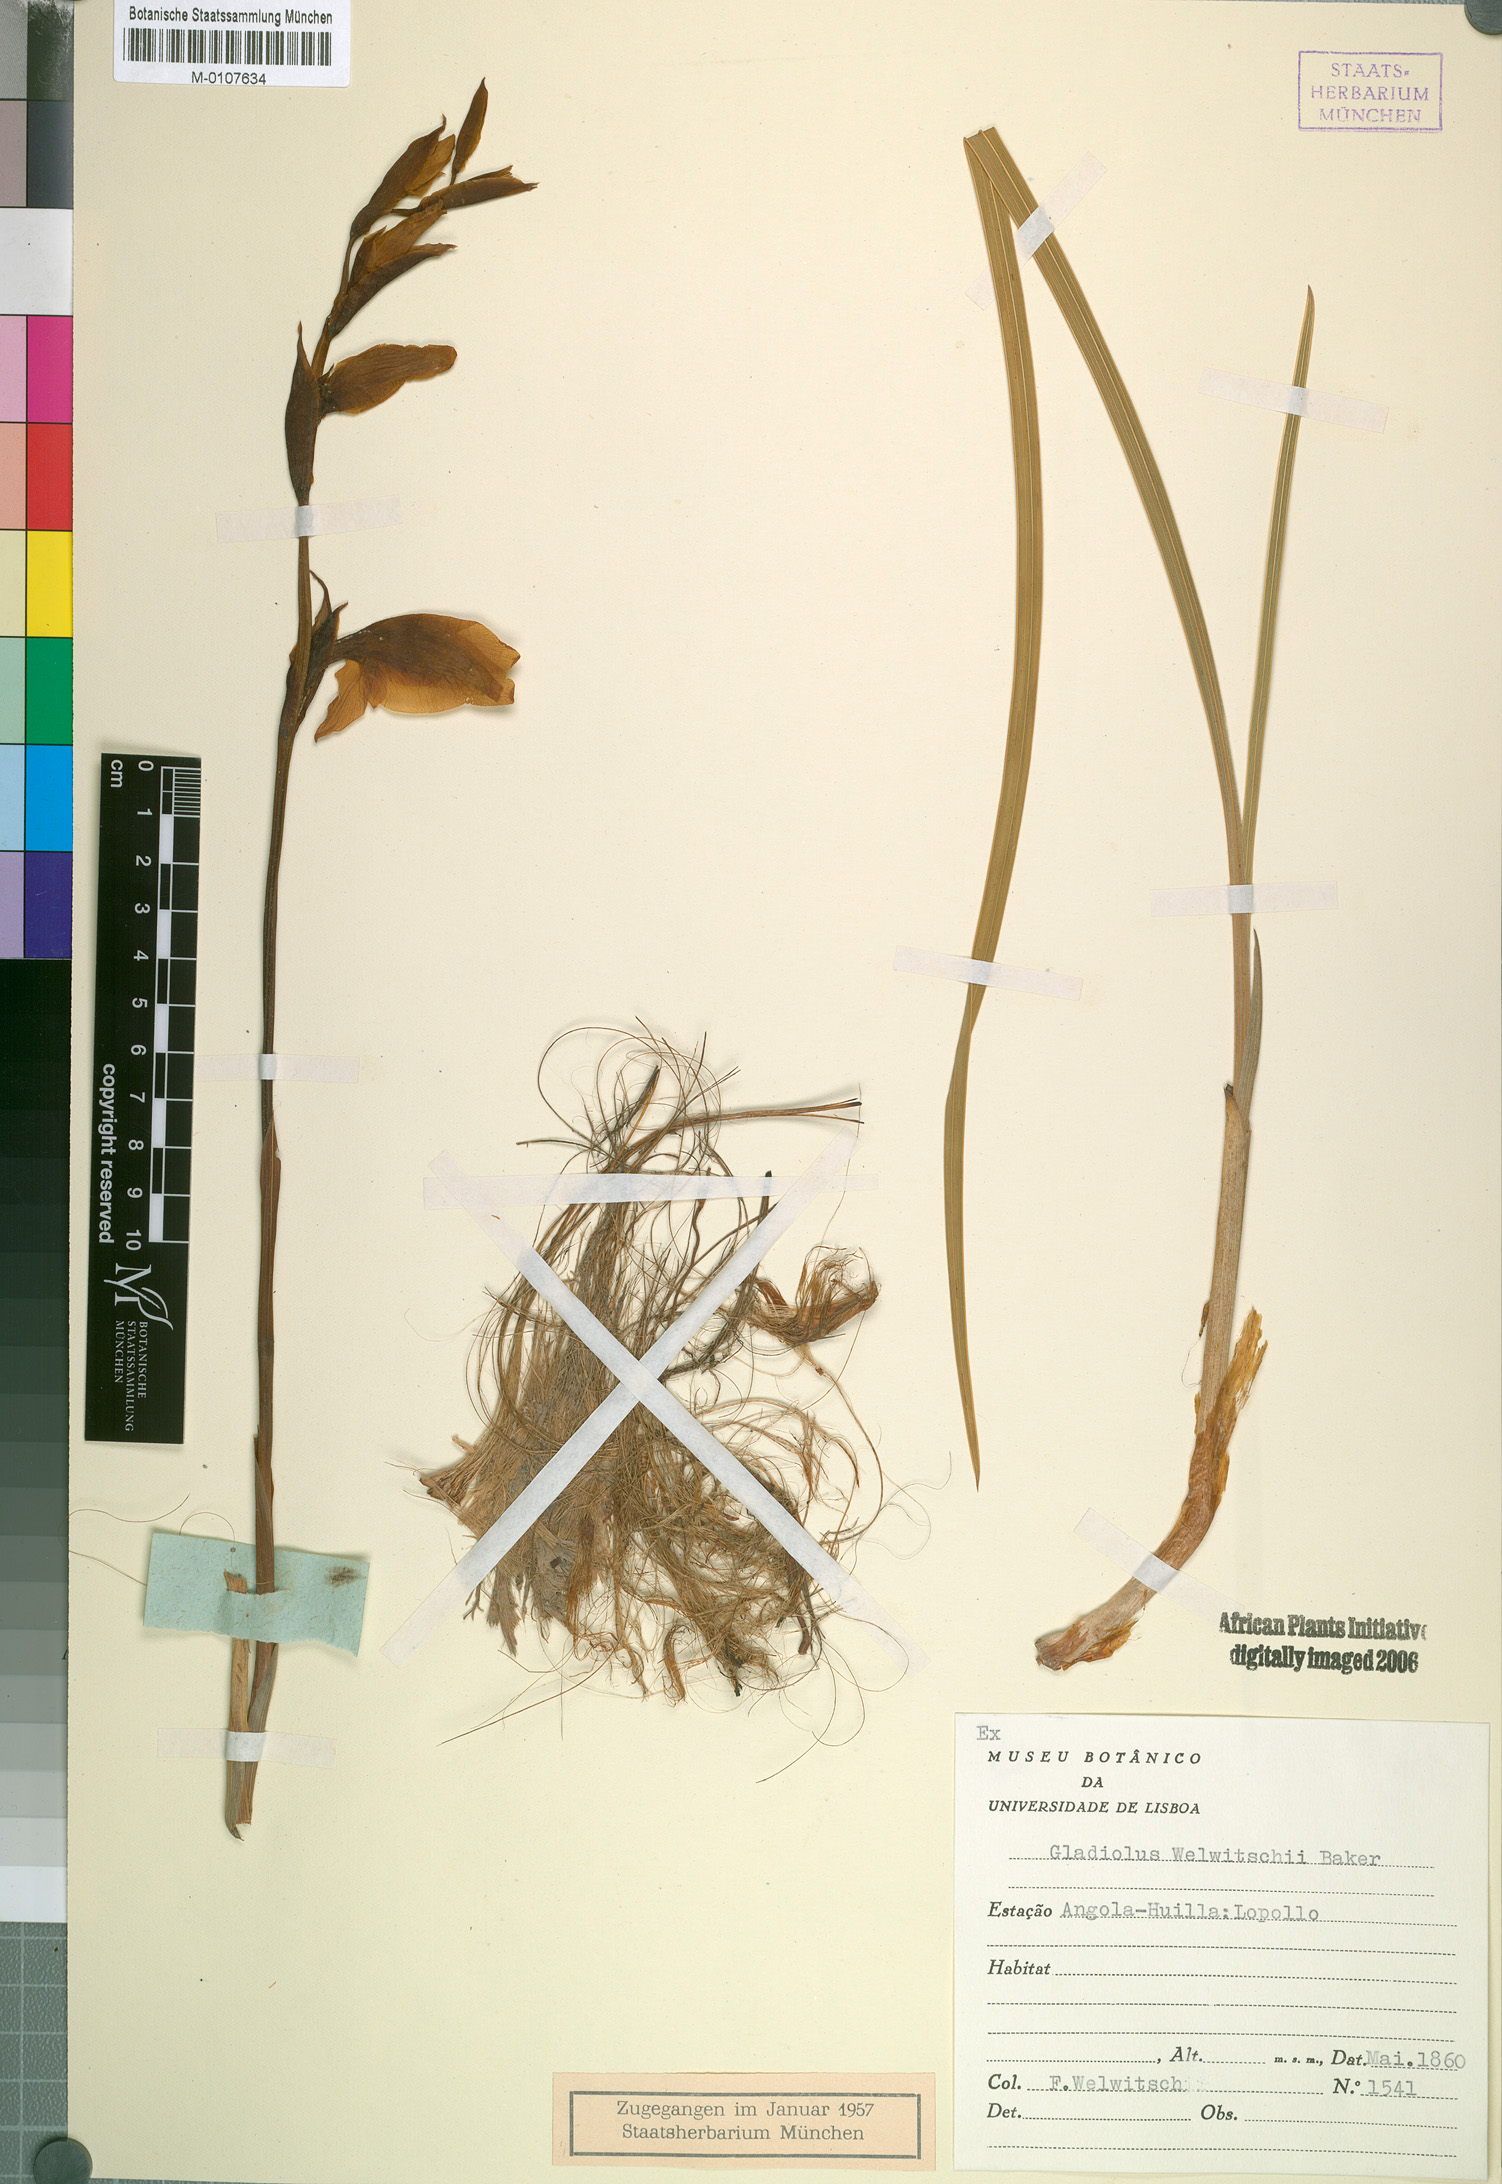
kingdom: Plantae
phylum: Tracheophyta
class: Liliopsida
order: Asparagales
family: Iridaceae
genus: Gladiolus
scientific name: Gladiolus dalenii
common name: Cornflag
